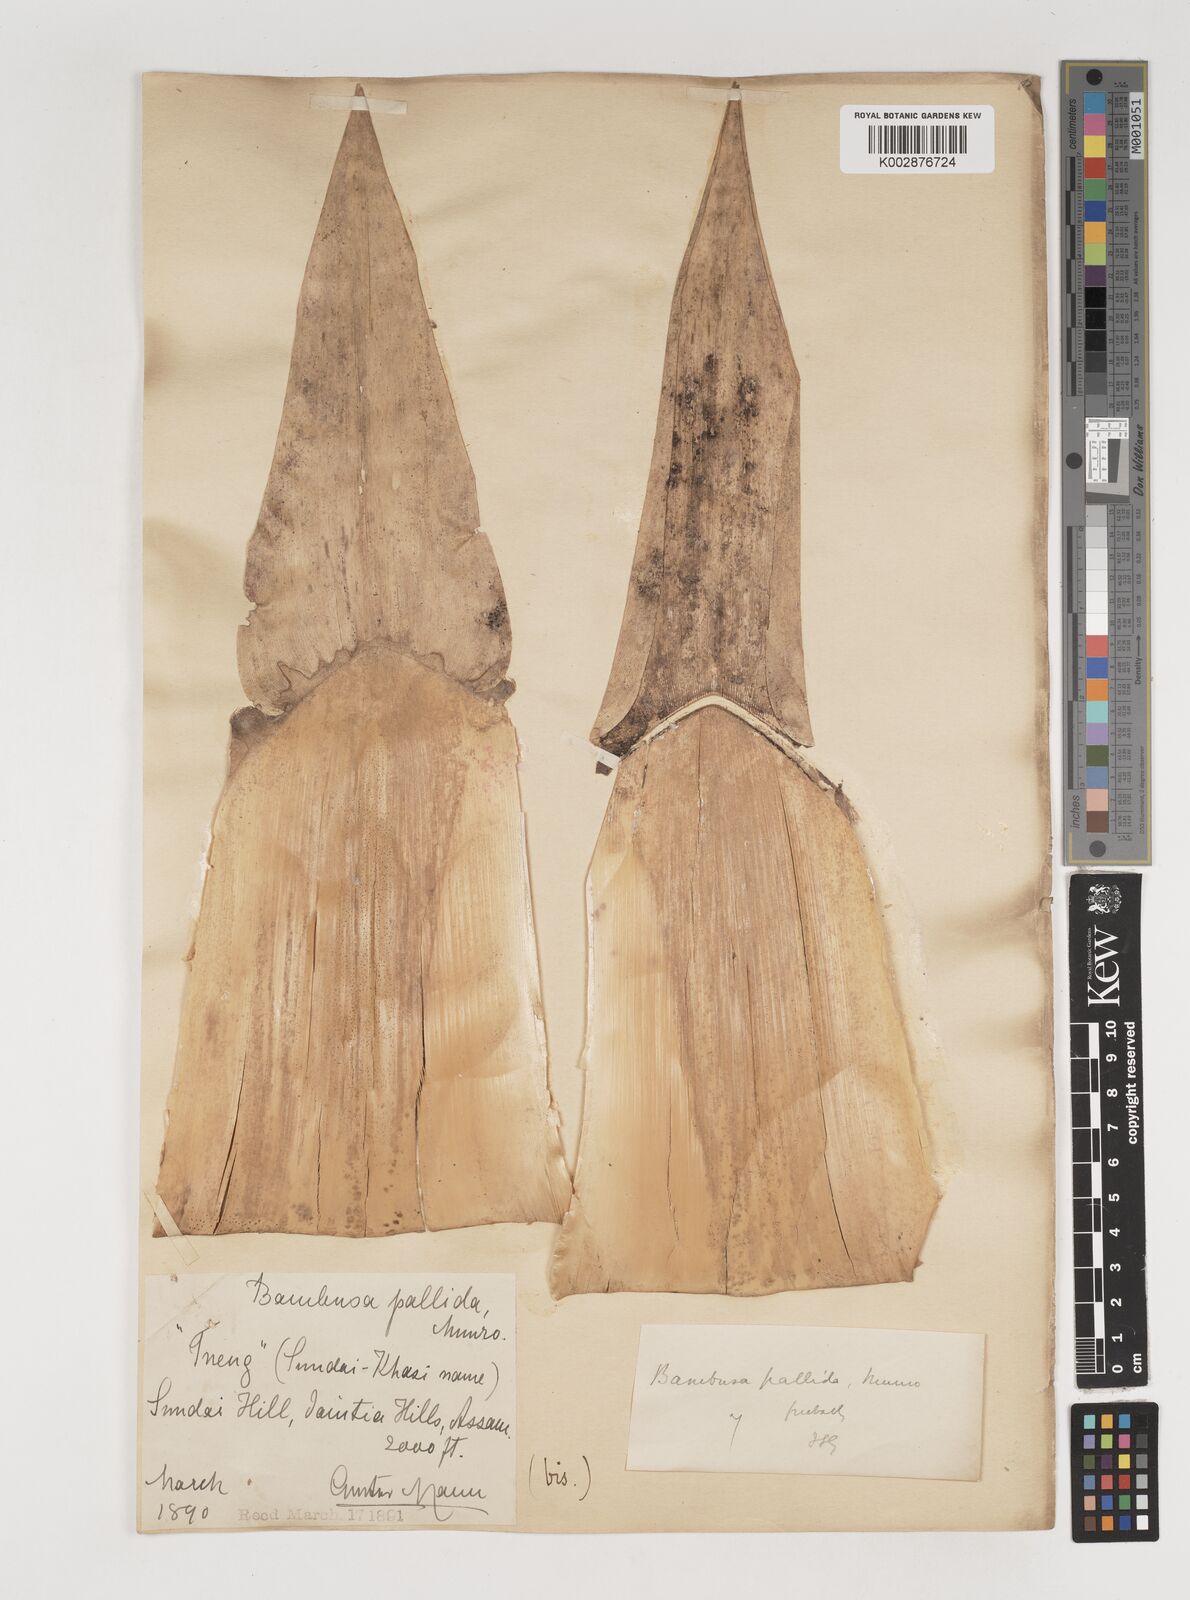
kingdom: Plantae
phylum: Tracheophyta
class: Liliopsida
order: Poales
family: Poaceae
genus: Bambusa
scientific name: Bambusa pallida
